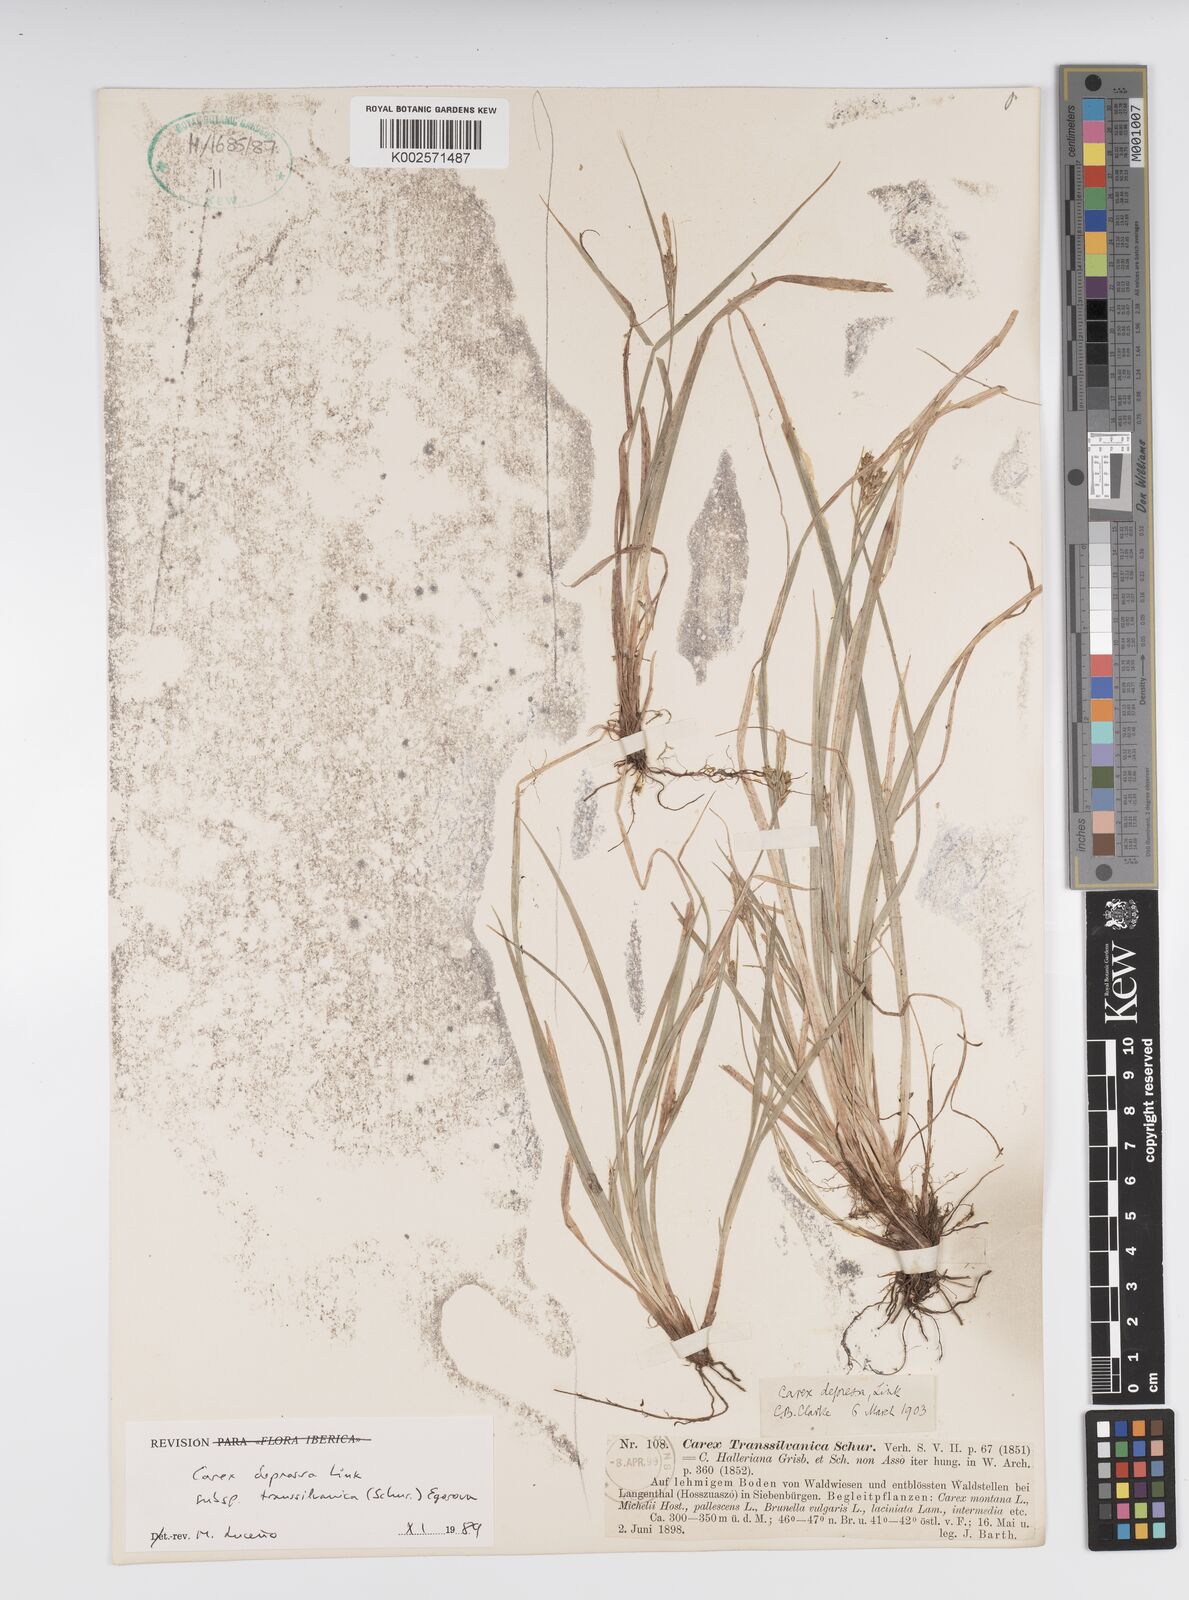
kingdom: Plantae
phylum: Tracheophyta
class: Liliopsida
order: Poales
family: Cyperaceae
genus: Carex
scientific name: Carex depressa
